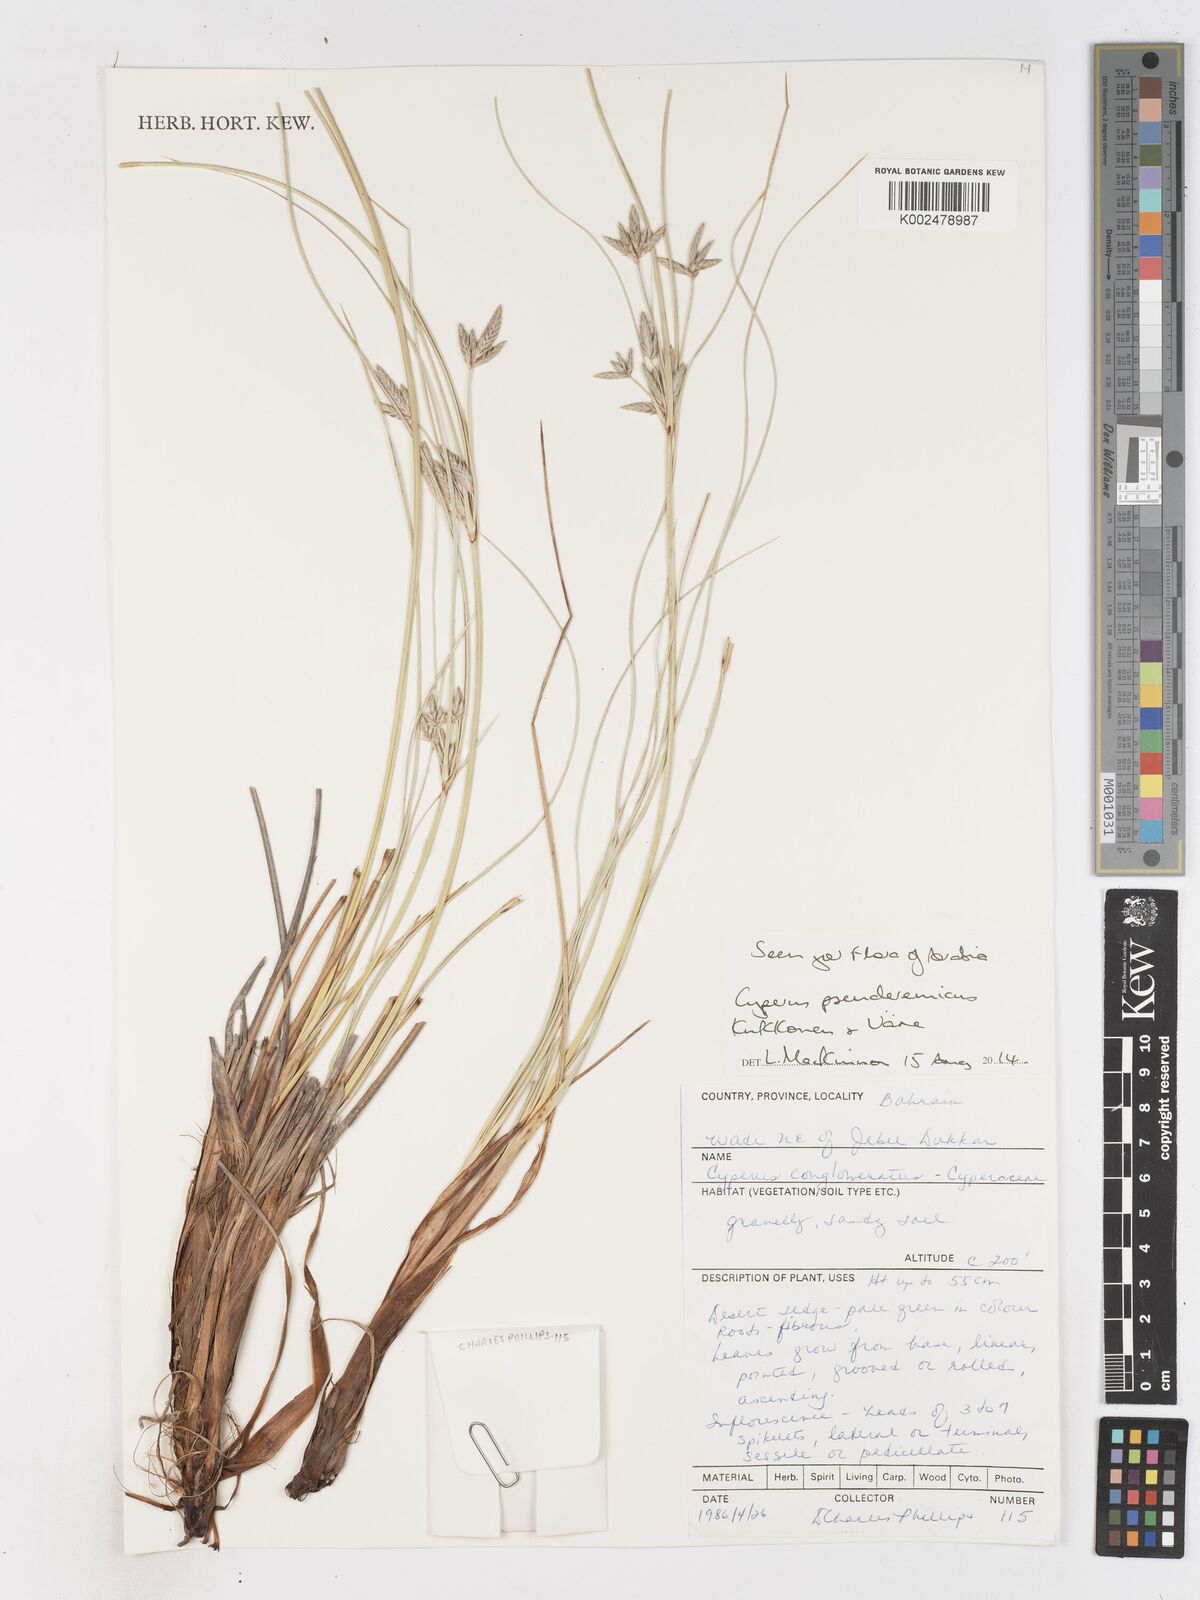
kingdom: Plantae
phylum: Tracheophyta
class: Liliopsida
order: Poales
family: Cyperaceae
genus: Cyperus
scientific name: Cyperus pseuderemicus
